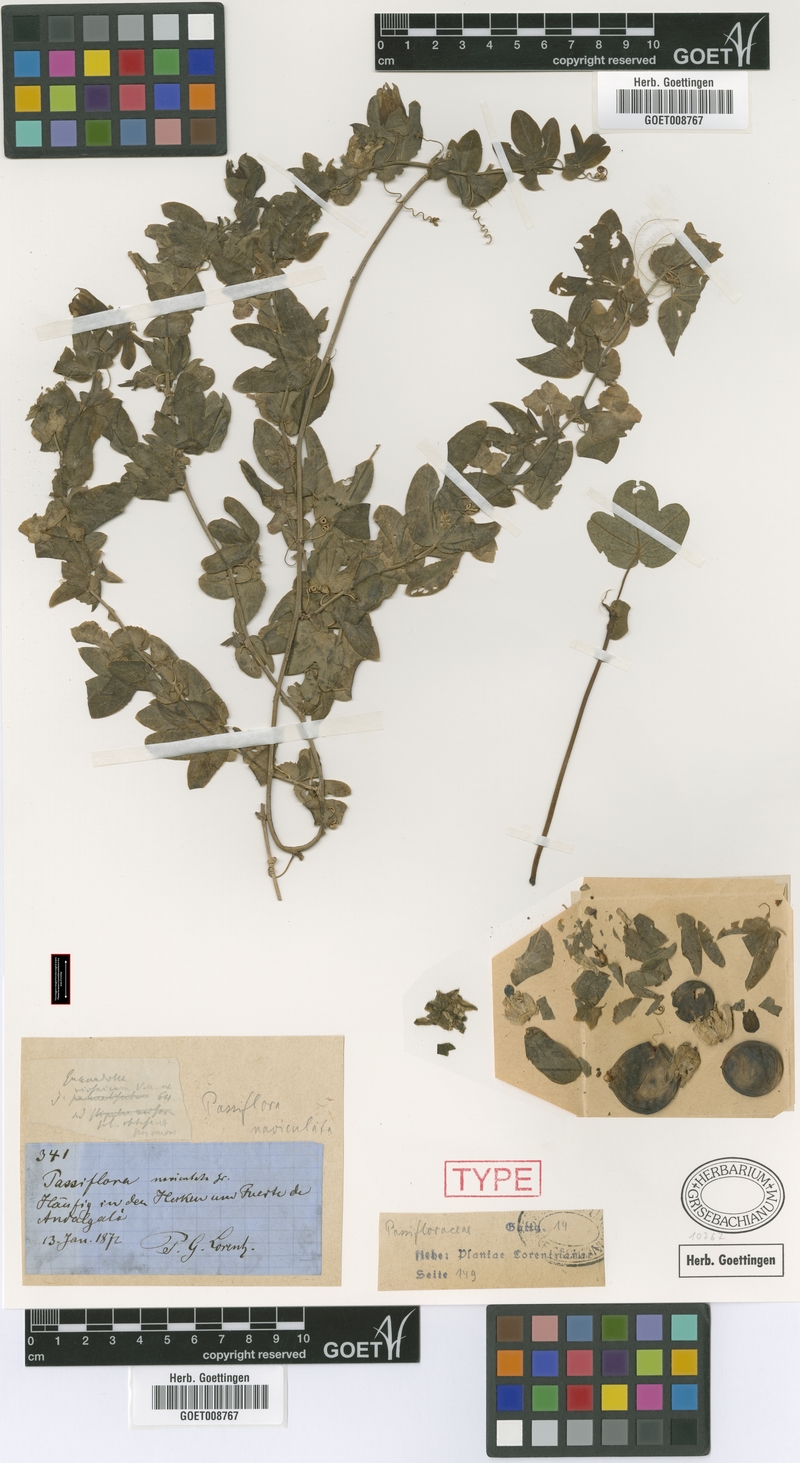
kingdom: Plantae
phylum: Tracheophyta
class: Magnoliopsida
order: Malpighiales
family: Passifloraceae
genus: Passiflora
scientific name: Passiflora tucumanensis
